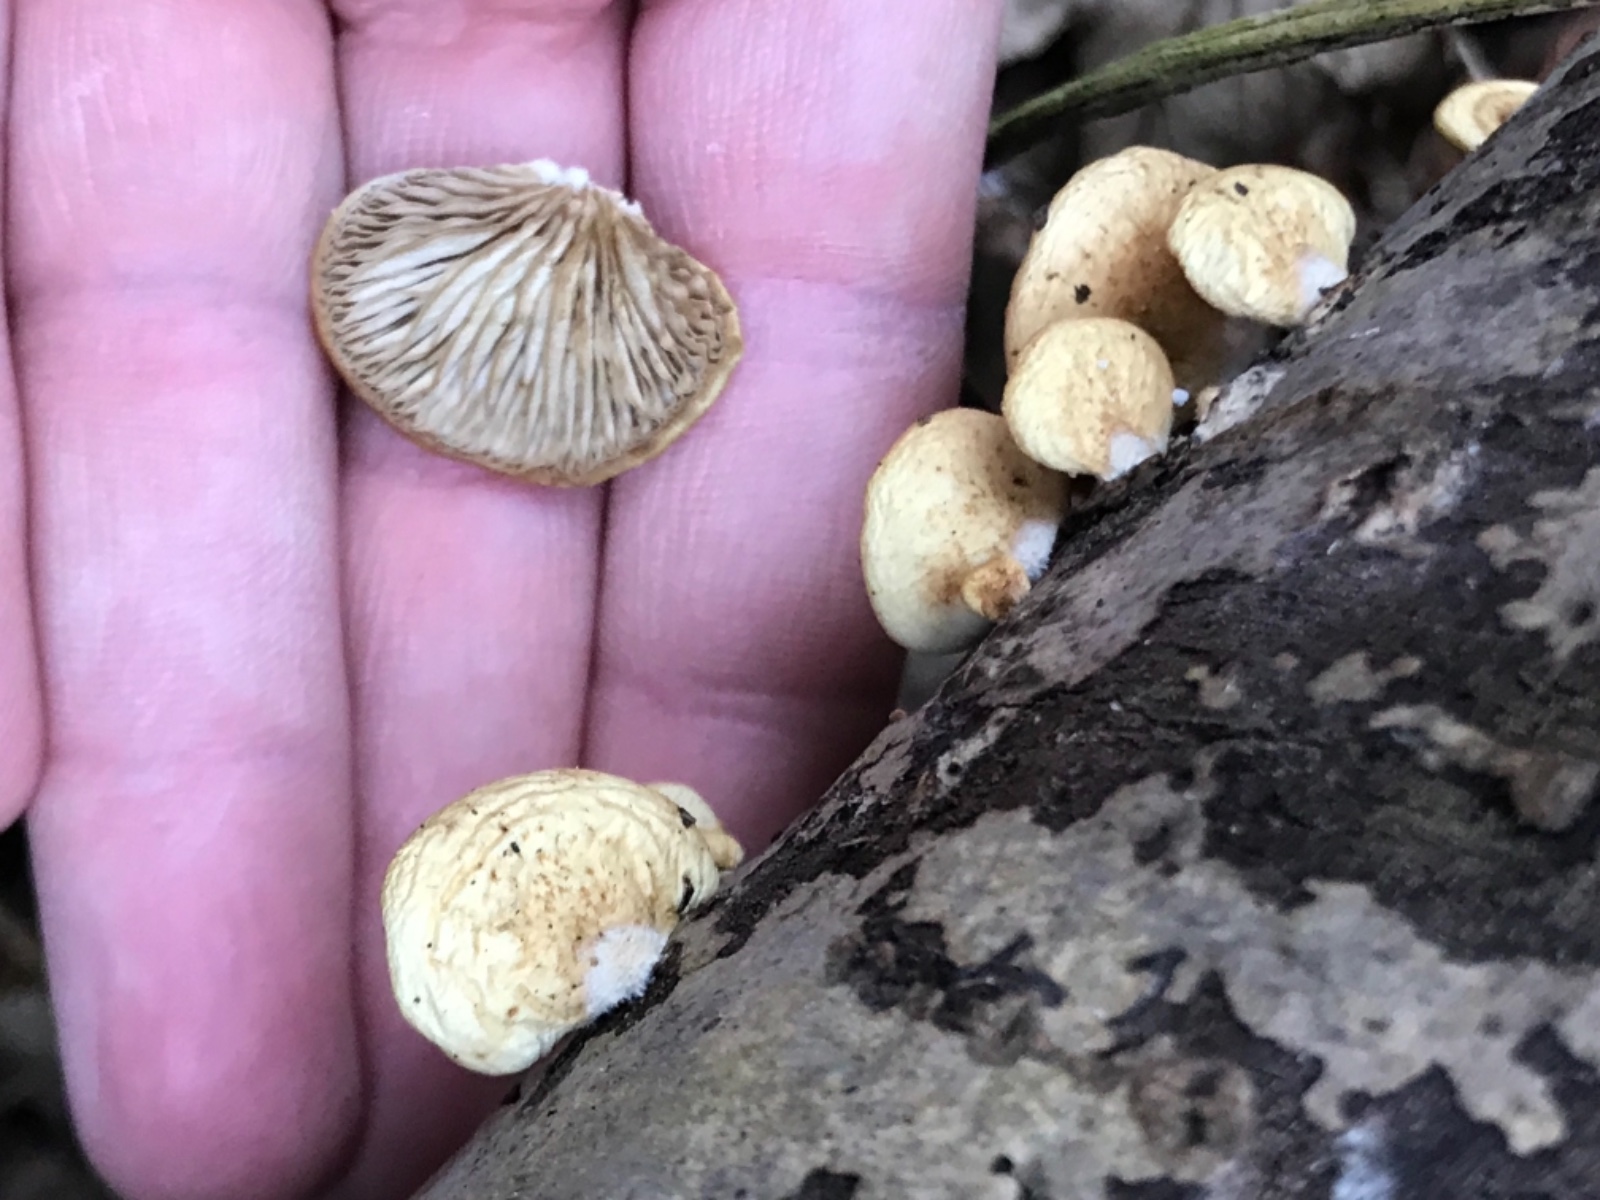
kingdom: Fungi
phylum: Basidiomycota
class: Agaricomycetes
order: Agaricales
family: Crepidotaceae
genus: Crepidotus
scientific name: Crepidotus
